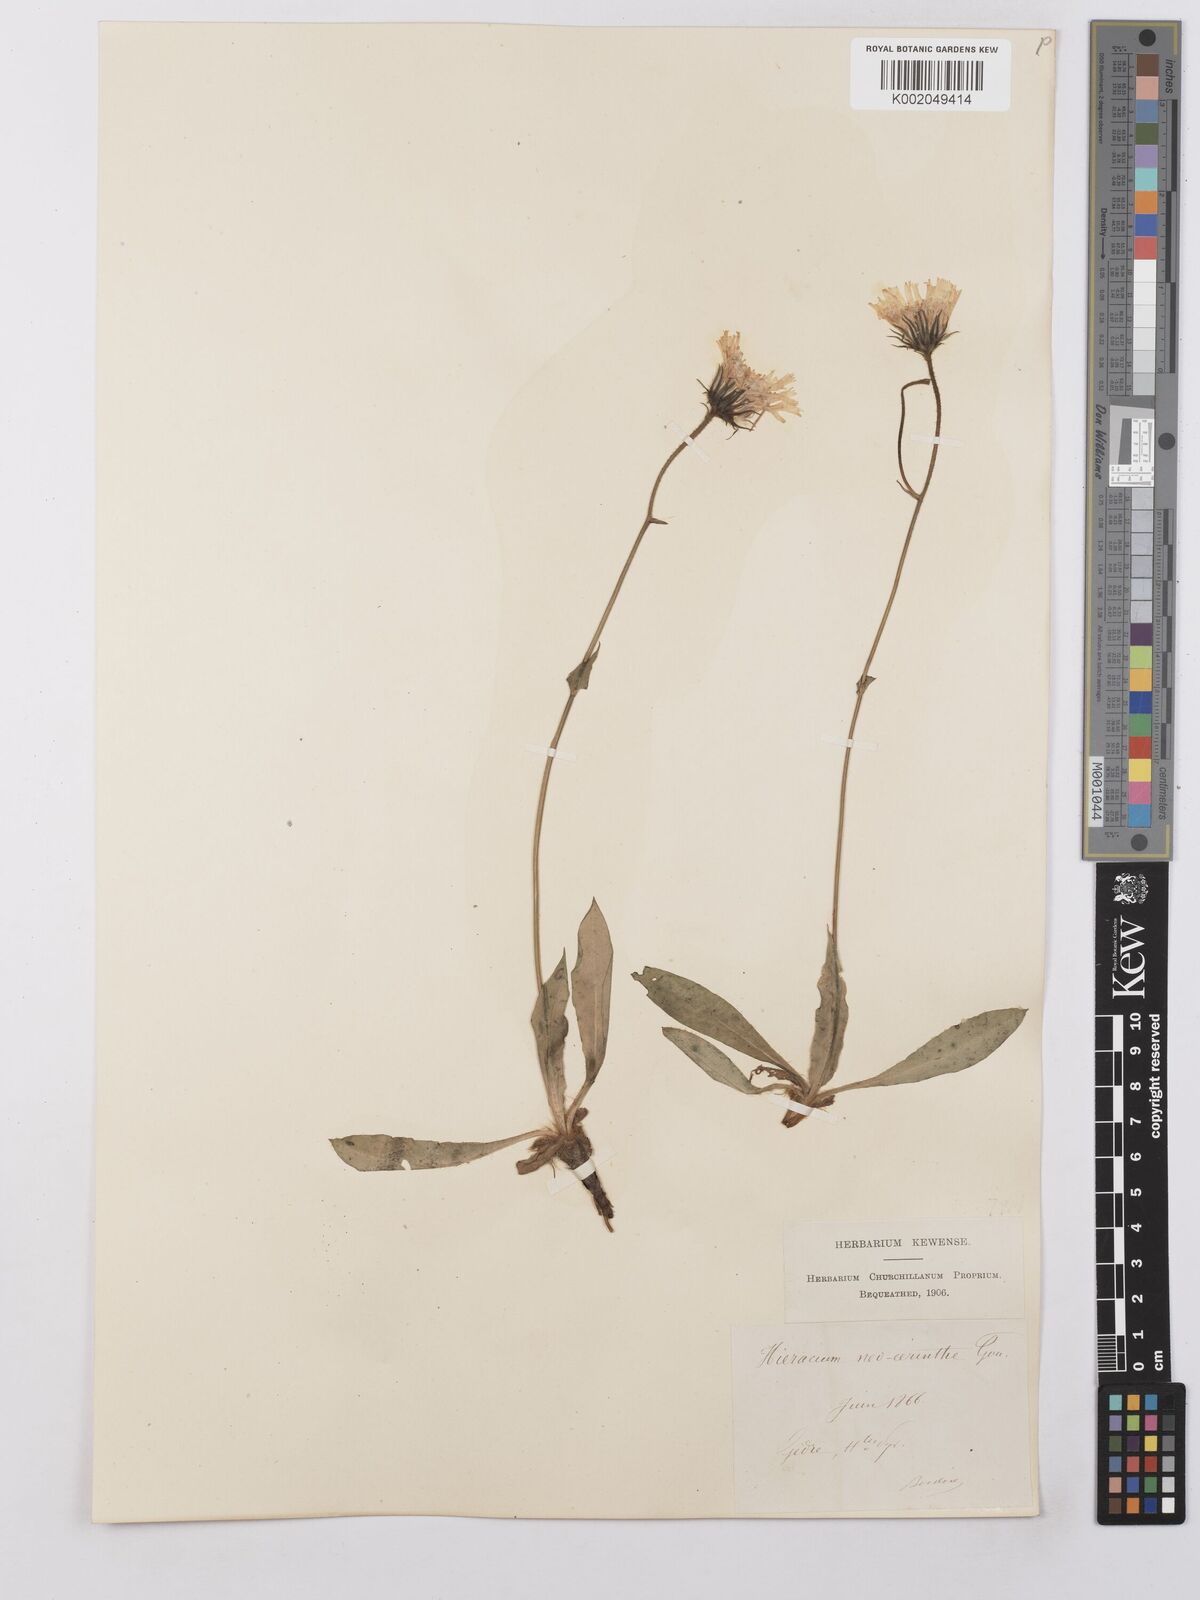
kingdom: Plantae
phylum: Tracheophyta
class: Magnoliopsida
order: Asterales
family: Asteraceae
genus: Hieracium
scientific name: Hieracium cerinthoides
